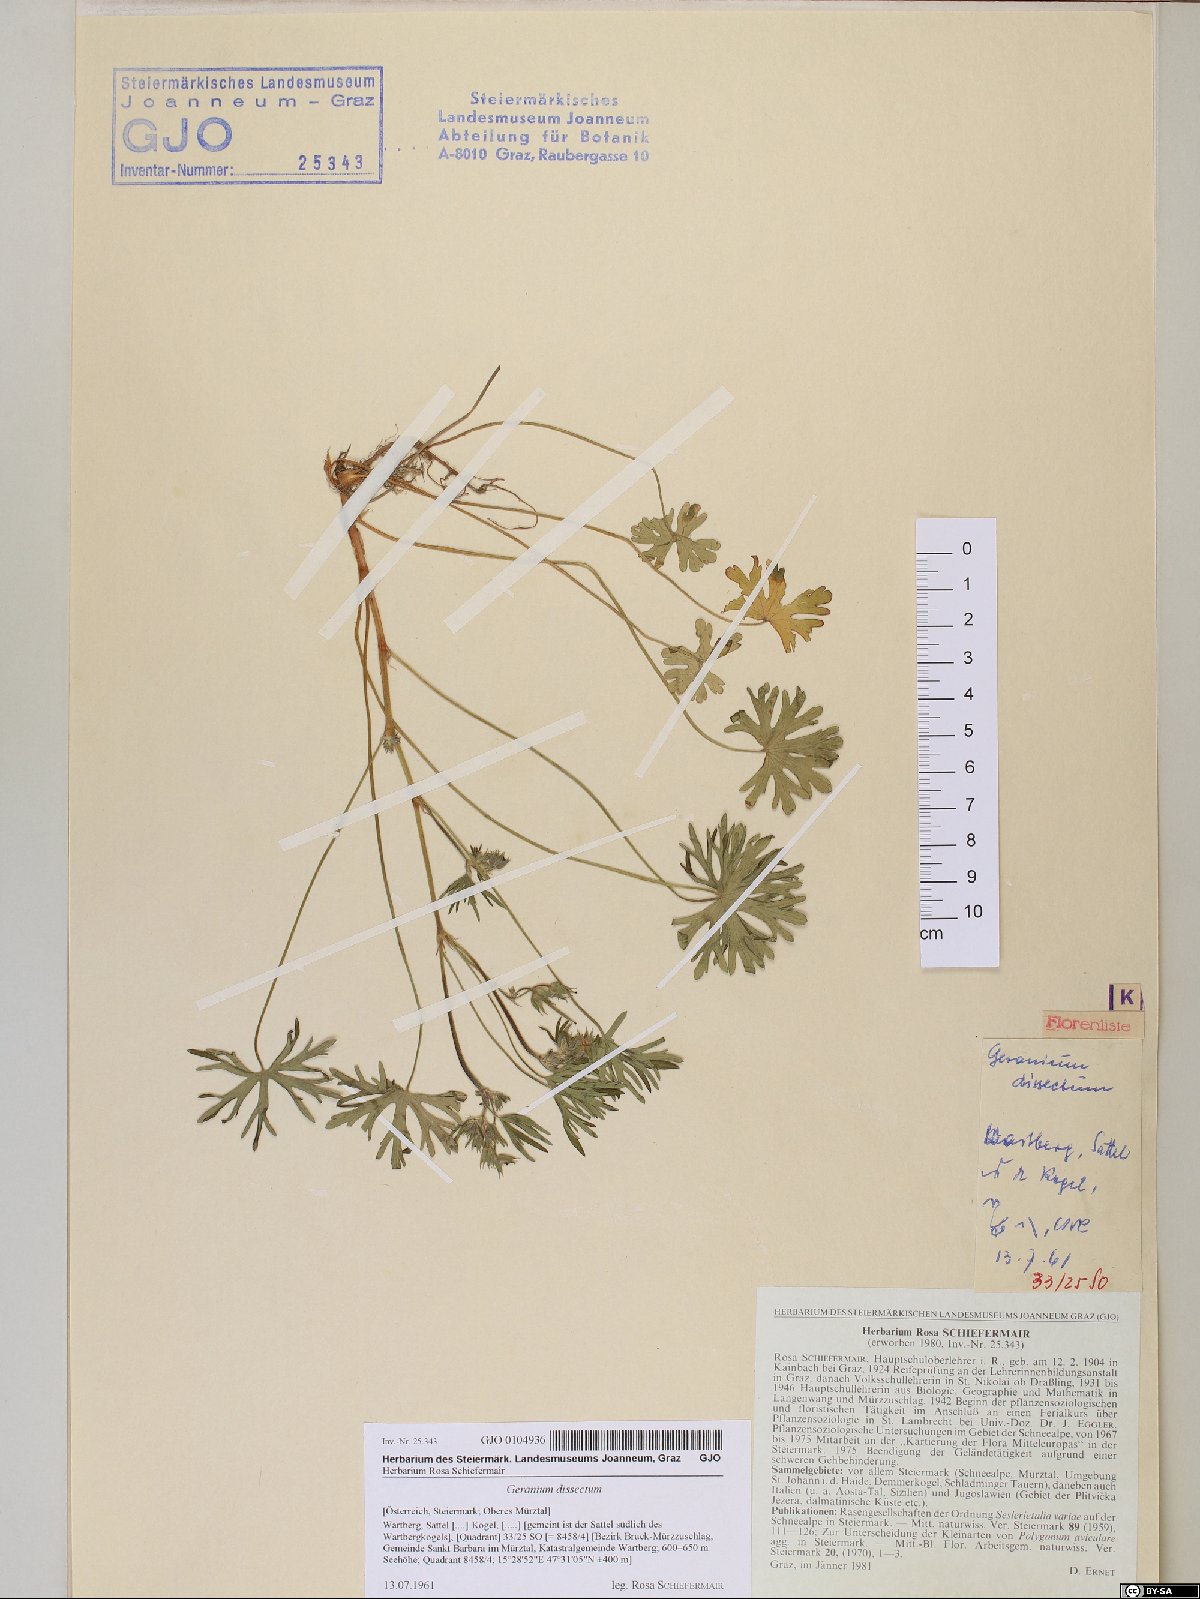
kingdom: Plantae
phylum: Tracheophyta
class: Magnoliopsida
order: Geraniales
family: Geraniaceae
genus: Geranium
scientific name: Geranium dissectum
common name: Cut-leaved crane's-bill
